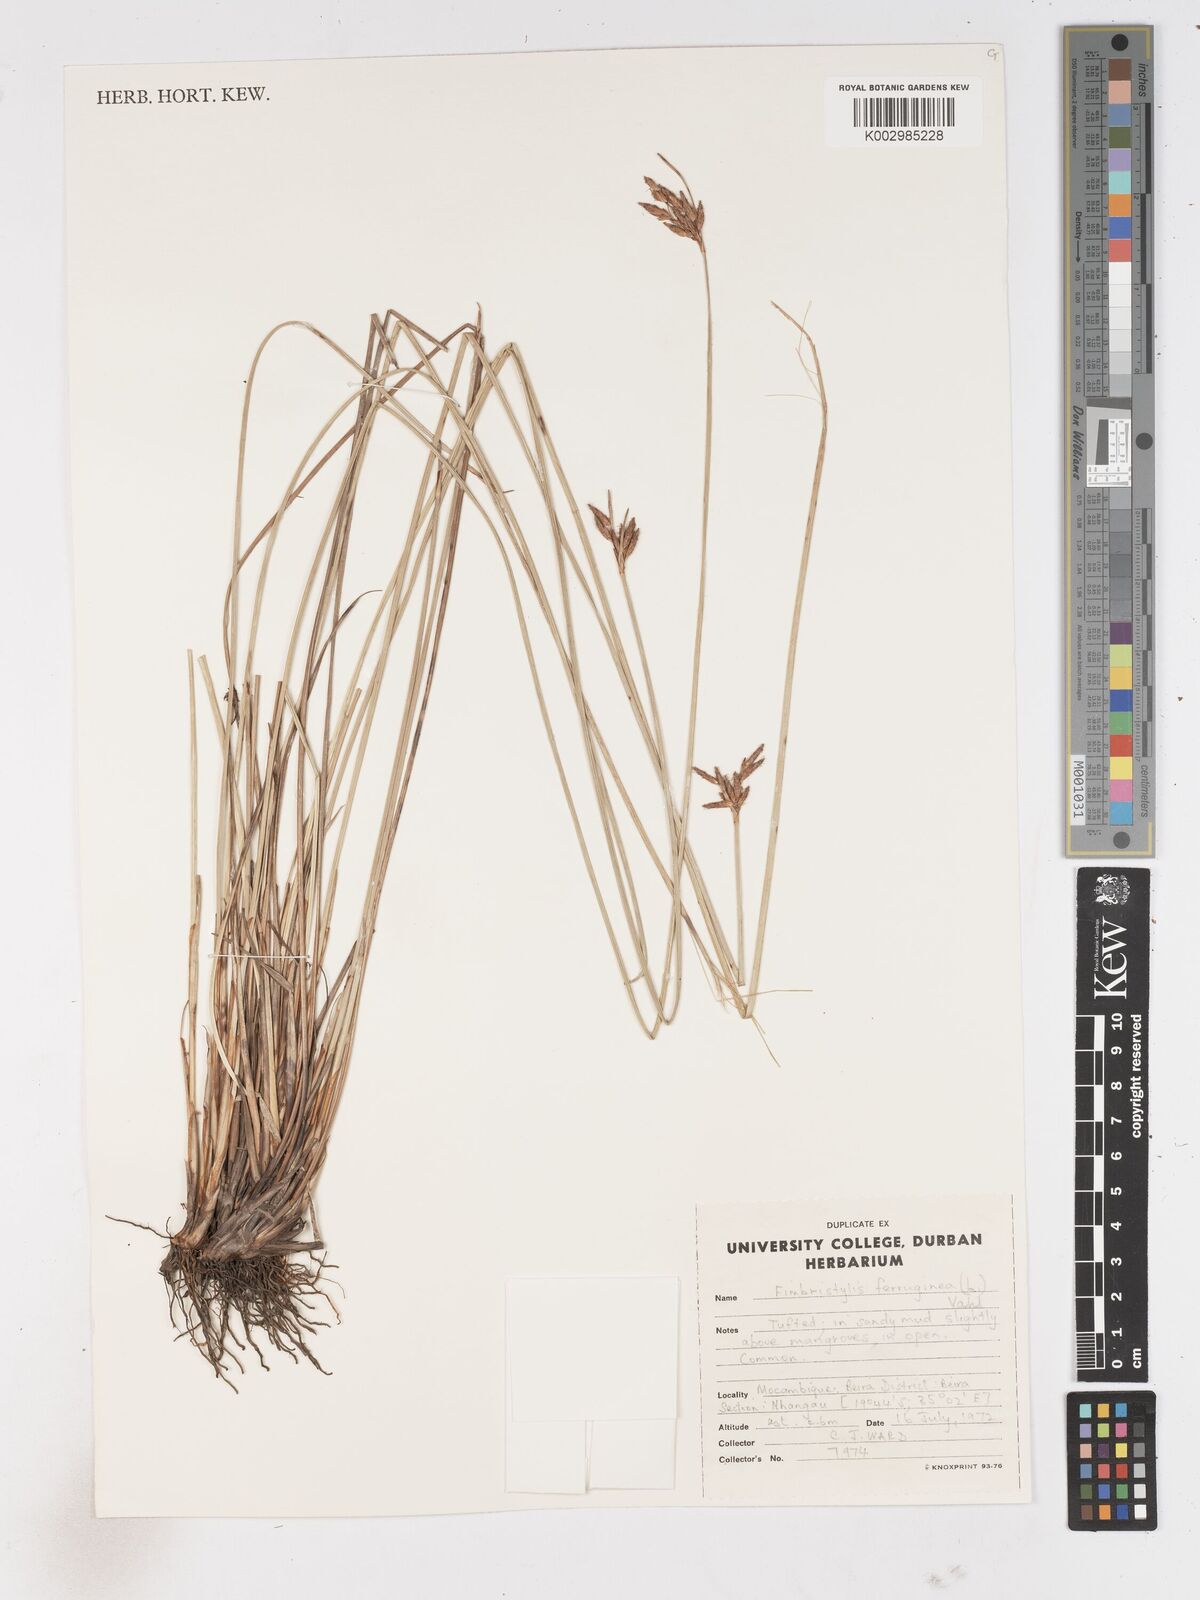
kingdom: Plantae
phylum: Tracheophyta
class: Liliopsida
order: Poales
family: Cyperaceae
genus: Fimbristylis
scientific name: Fimbristylis ferruginea
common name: West indian fimbry
